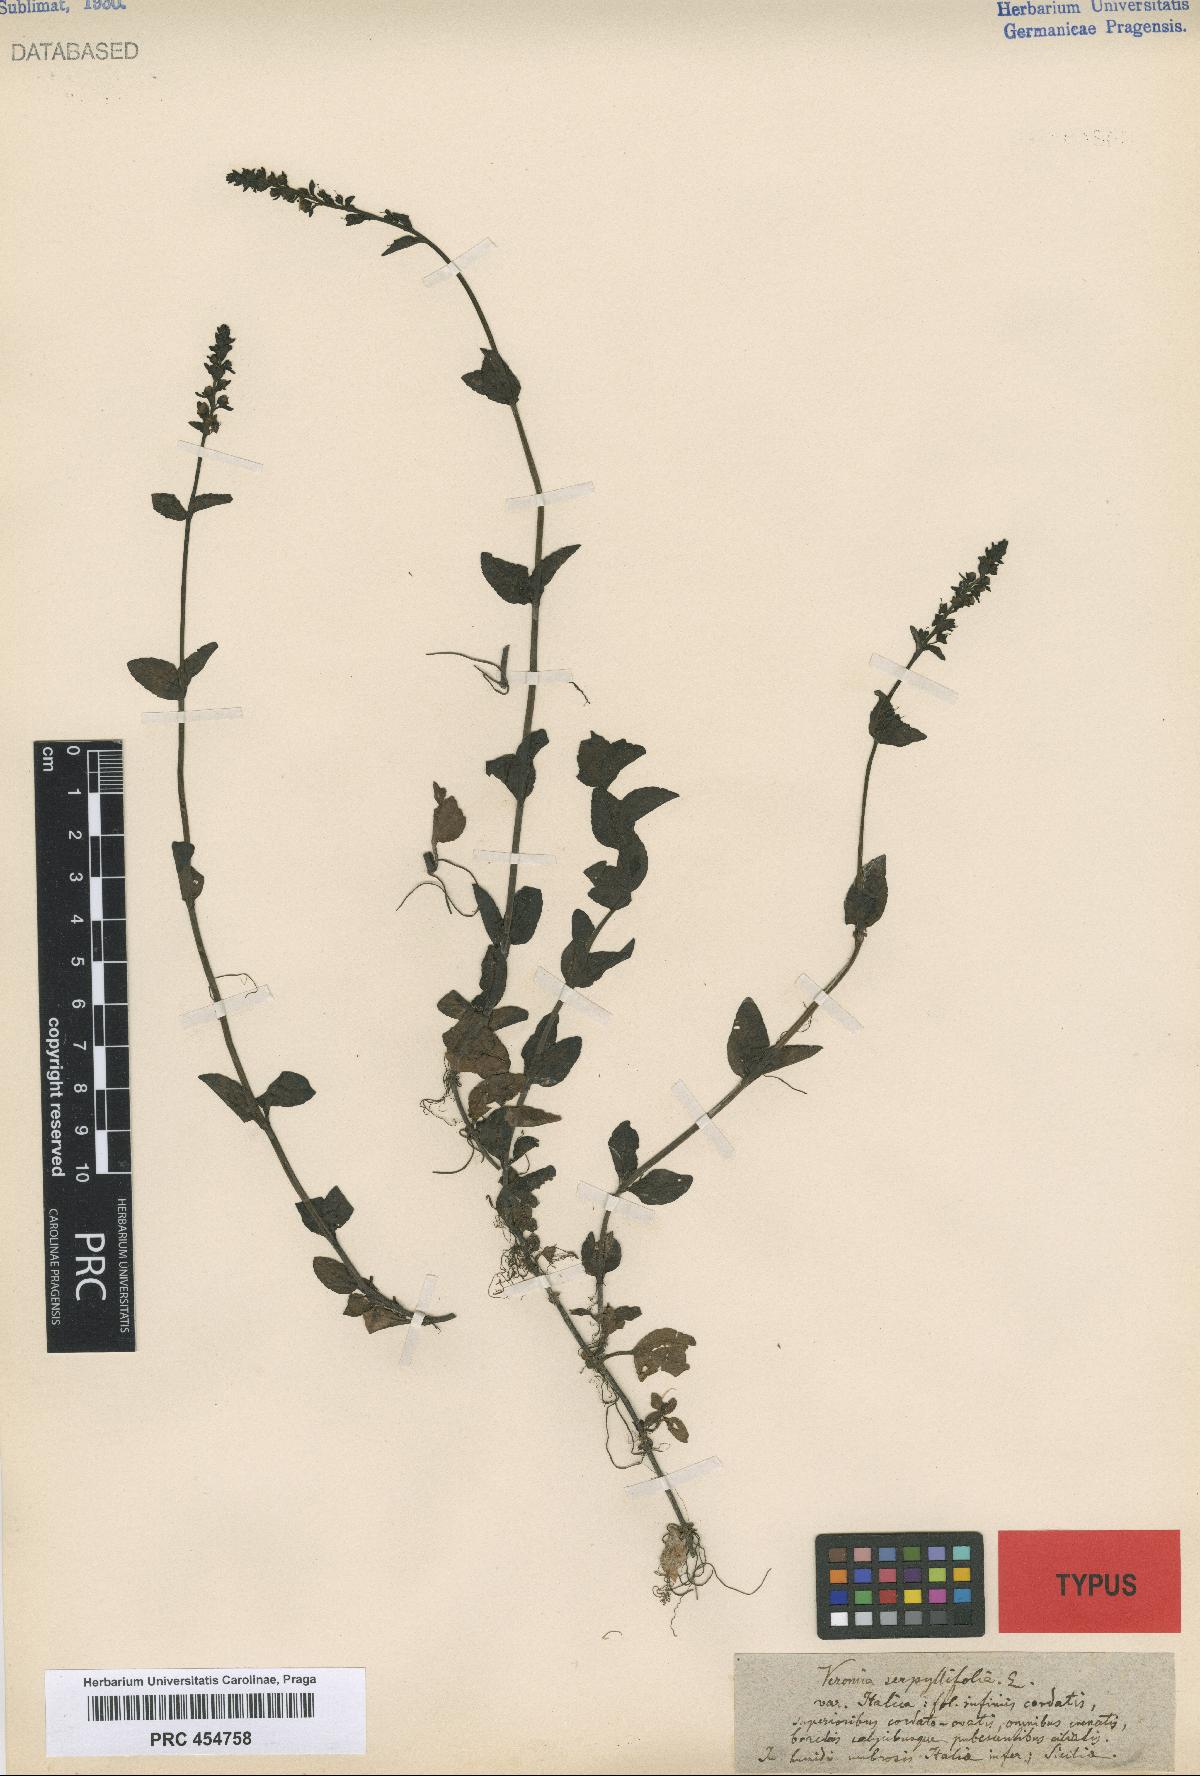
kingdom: Plantae
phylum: Tracheophyta
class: Magnoliopsida
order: Lamiales
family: Plantaginaceae
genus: Veronica
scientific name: Veronica serpyllifolia
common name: Thyme-leaved speedwell
